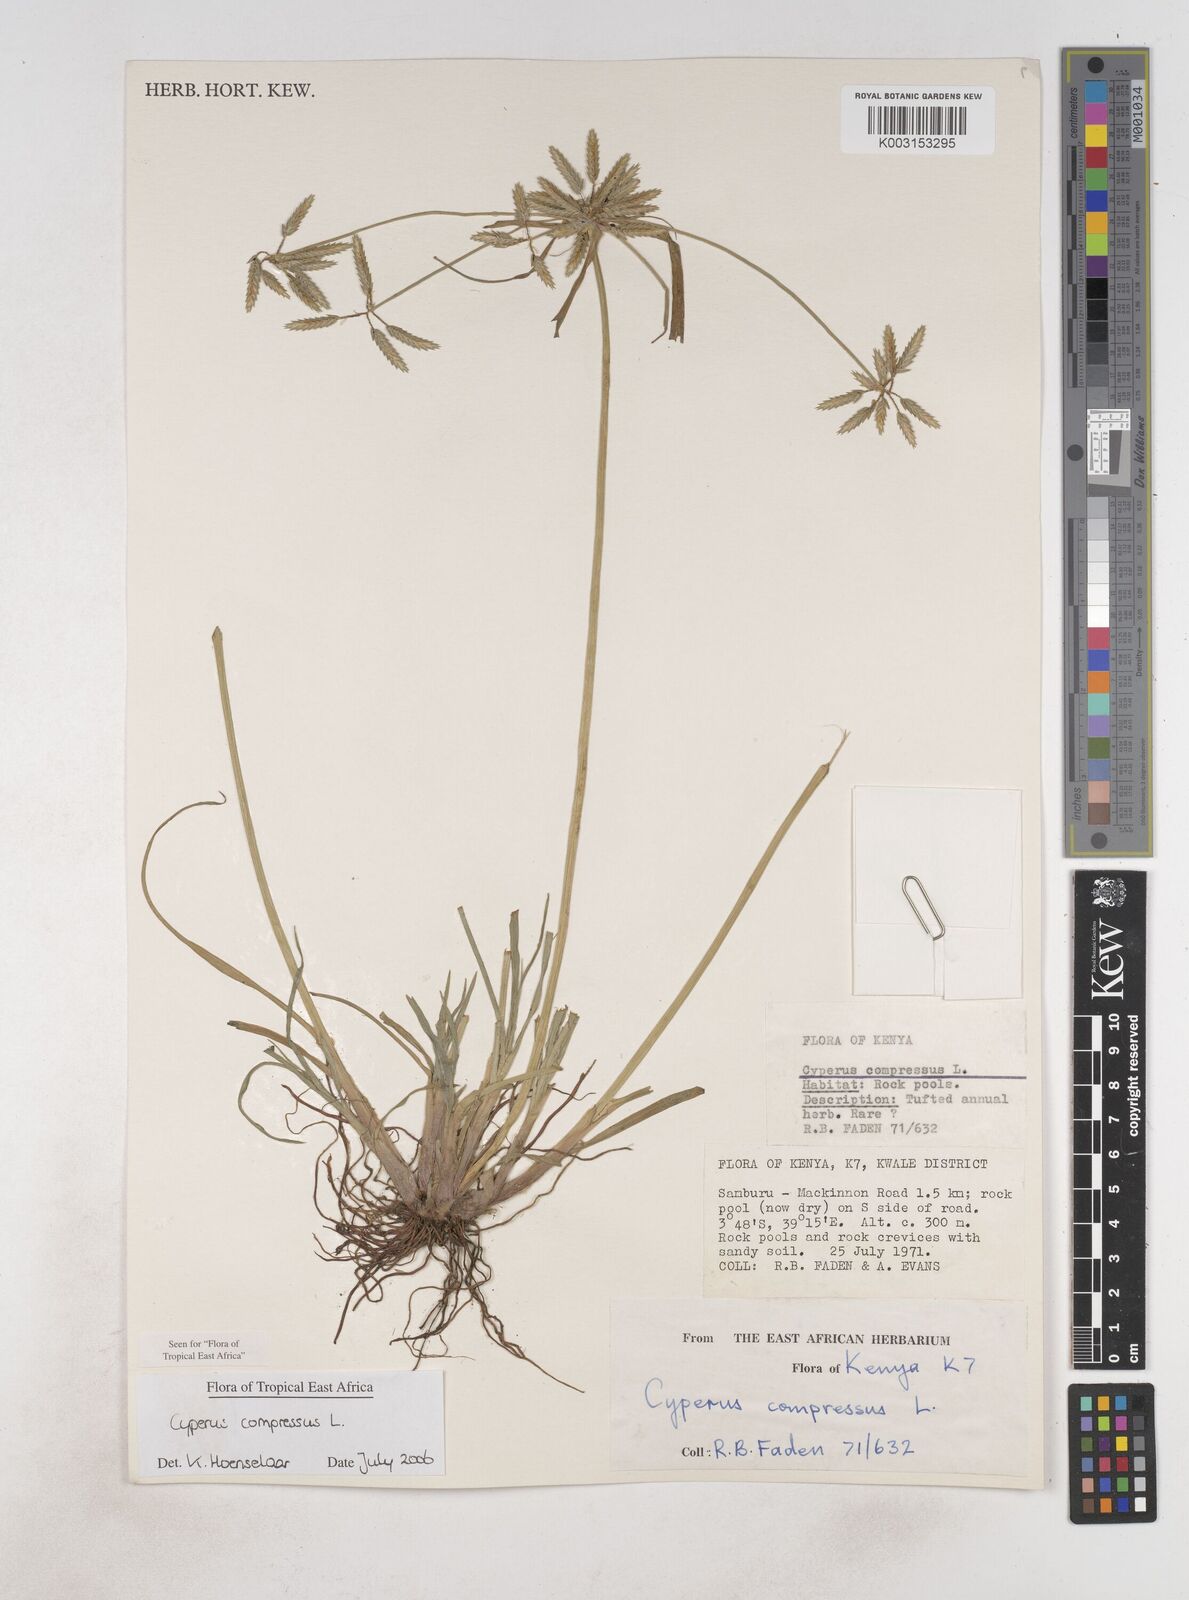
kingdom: Plantae
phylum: Tracheophyta
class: Liliopsida
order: Poales
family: Cyperaceae
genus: Cyperus
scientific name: Cyperus compressus
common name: Poorland flatsedge
